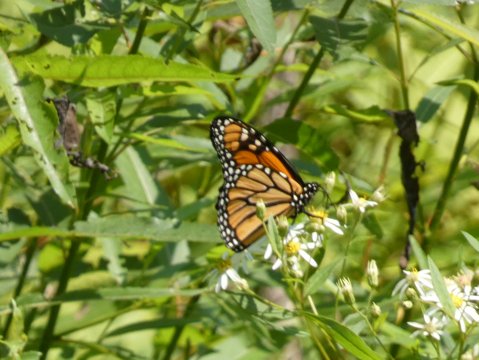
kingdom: Animalia
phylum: Arthropoda
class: Insecta
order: Lepidoptera
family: Nymphalidae
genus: Danaus
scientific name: Danaus plexippus
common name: Monarch
